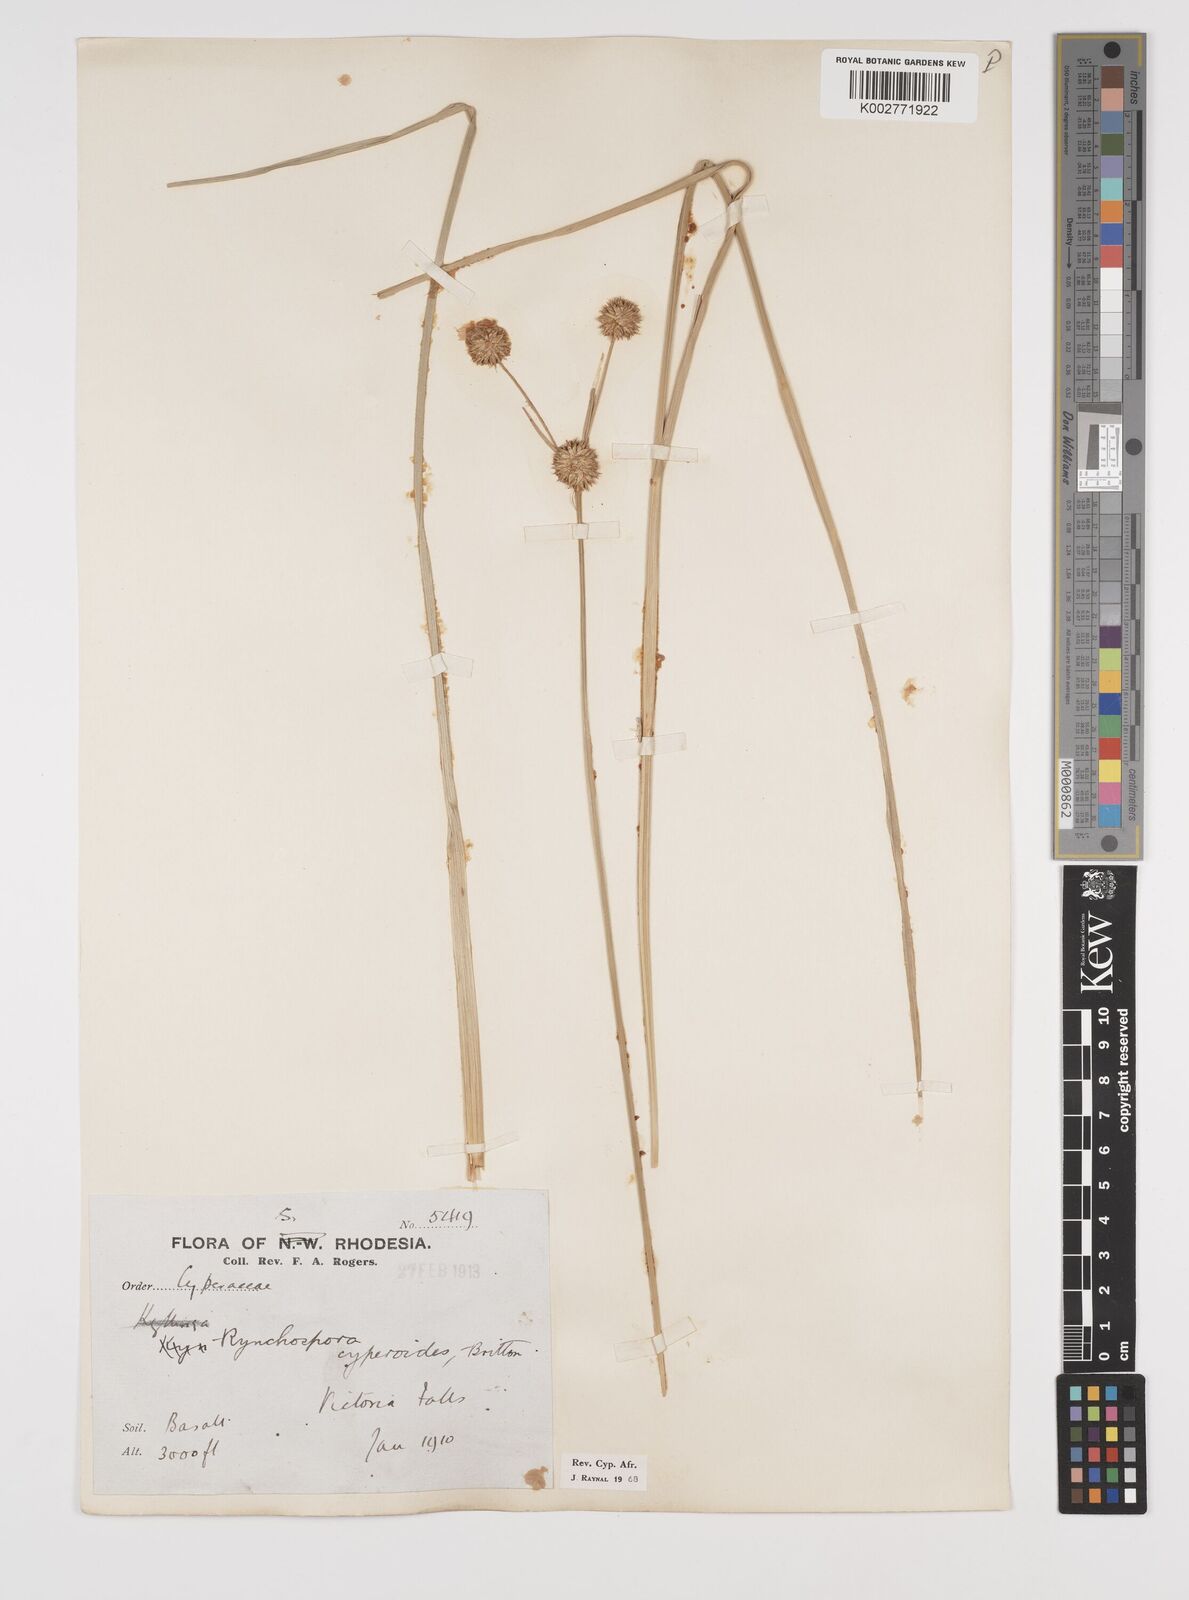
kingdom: Plantae
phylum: Tracheophyta
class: Liliopsida
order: Poales
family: Cyperaceae
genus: Rhynchospora
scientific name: Rhynchospora holoschoenoides
